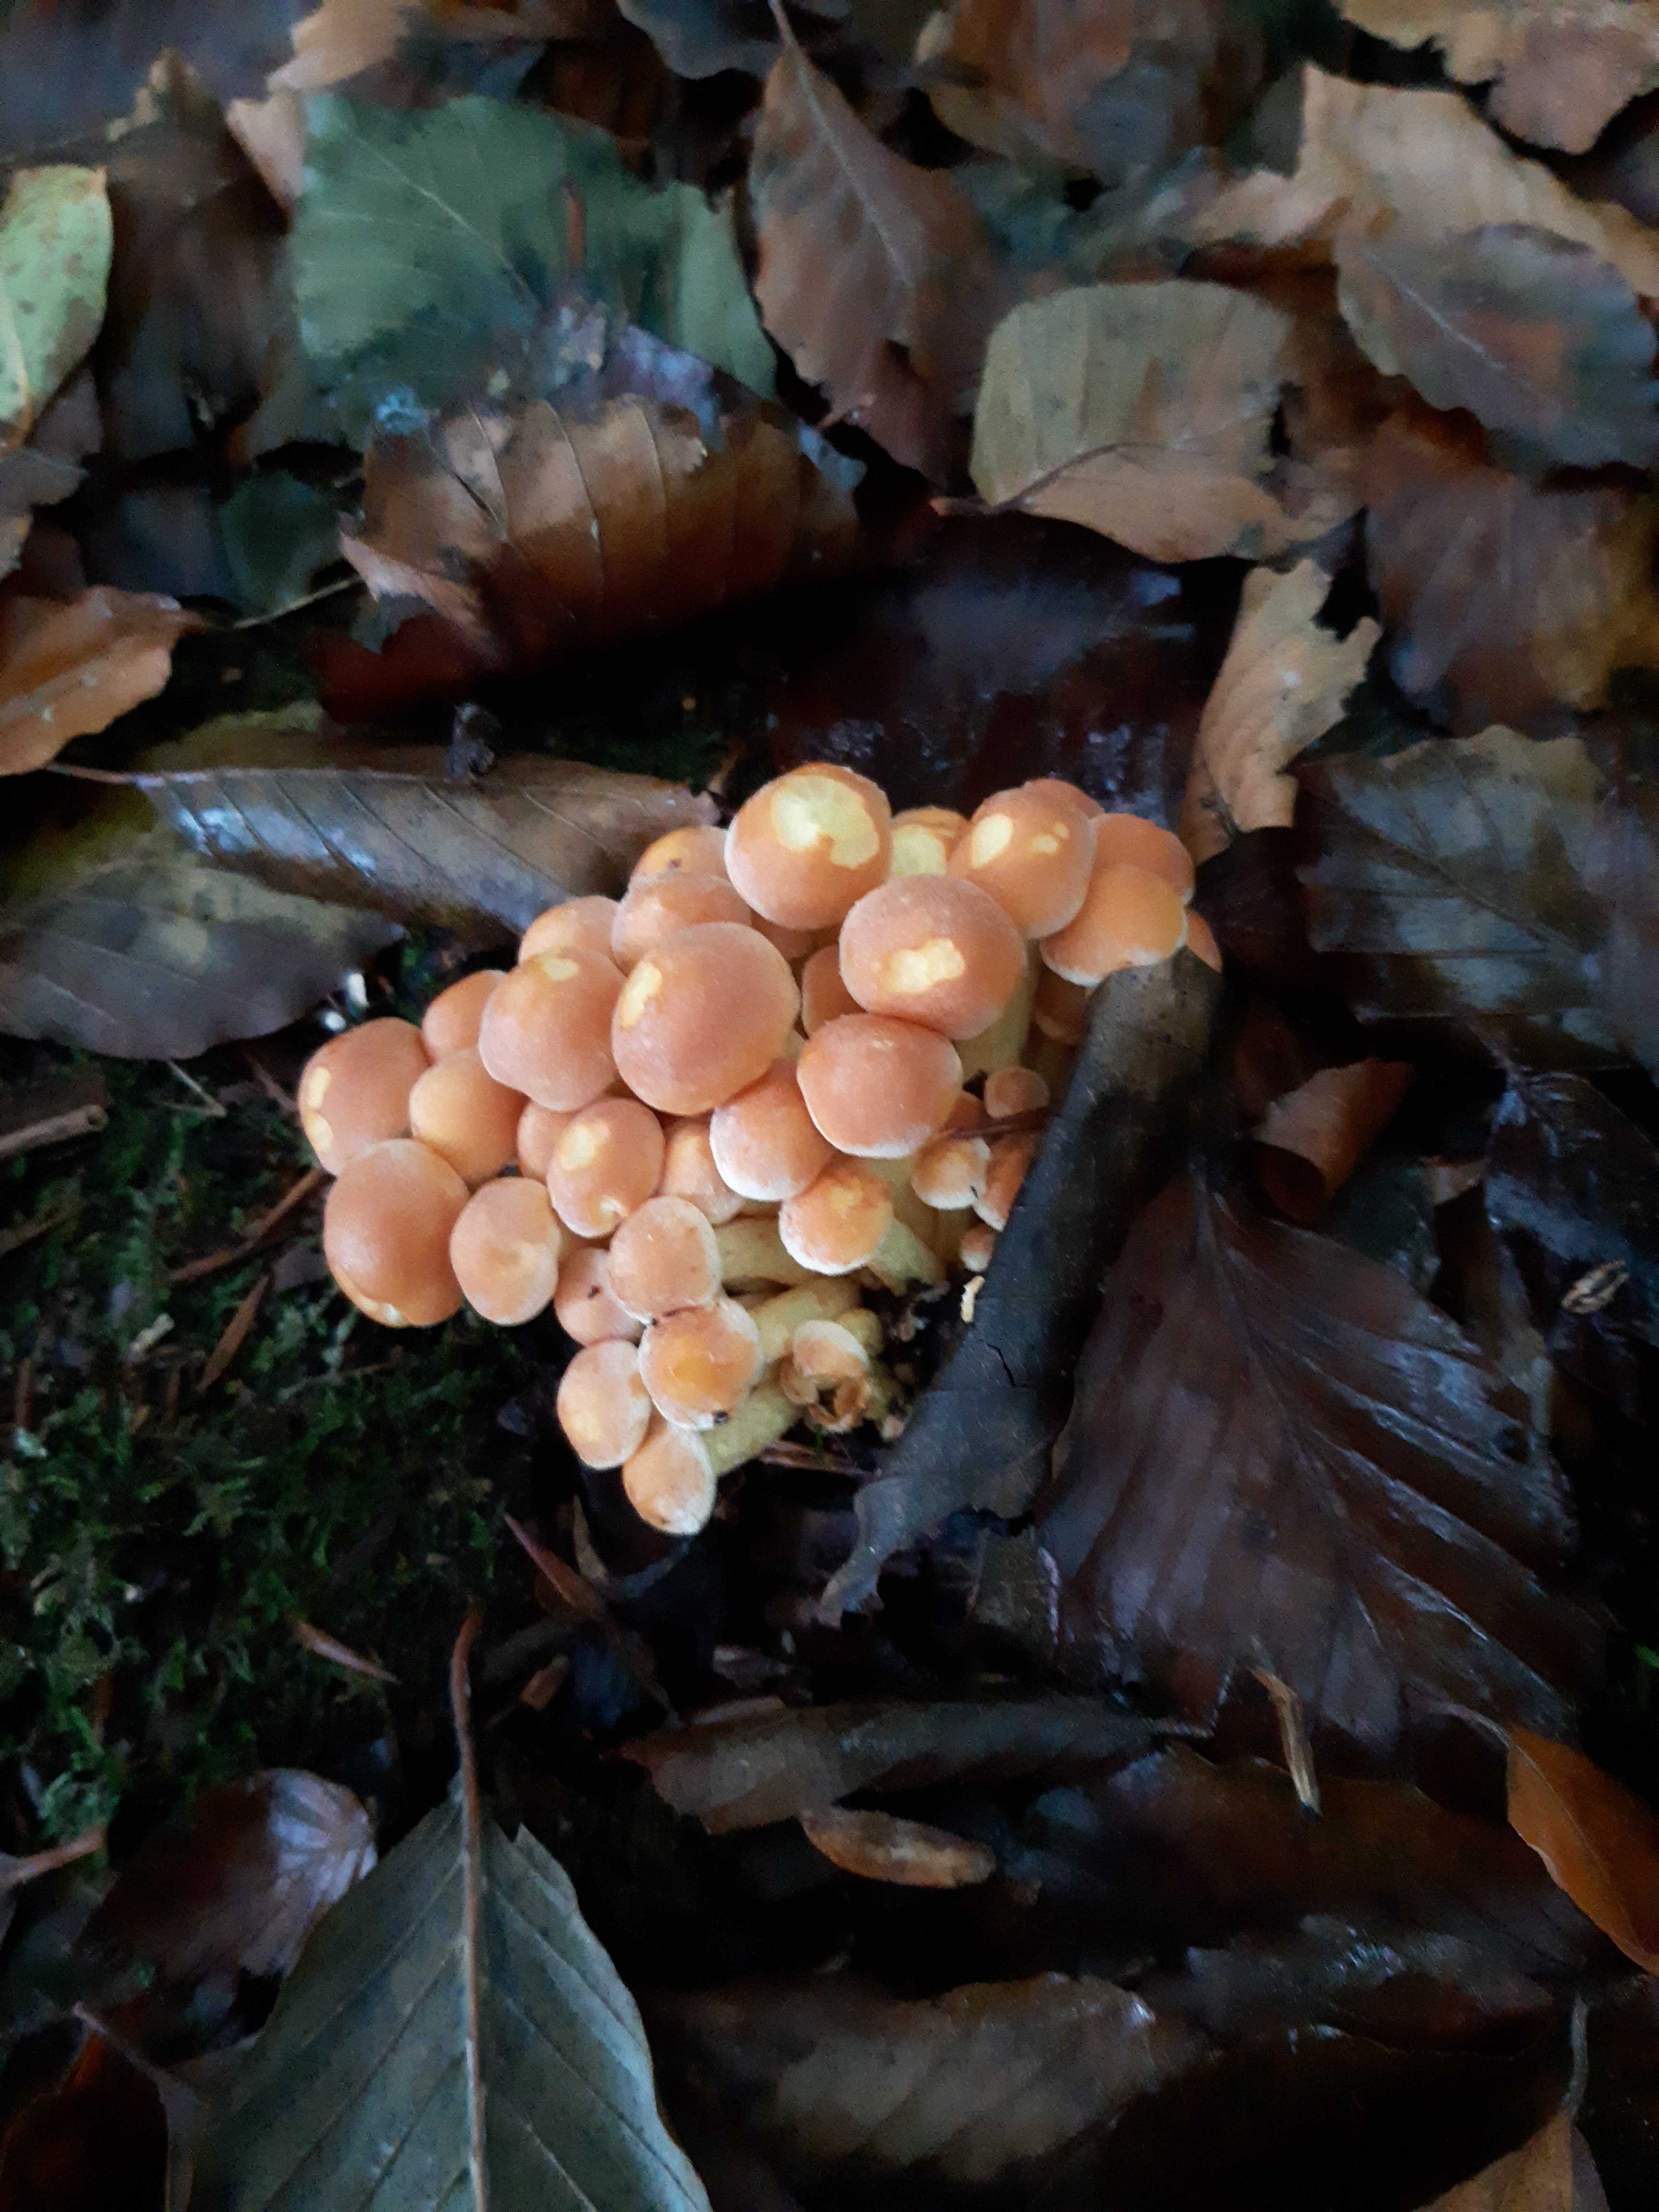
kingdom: Fungi
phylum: Basidiomycota
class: Agaricomycetes
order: Agaricales
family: Strophariaceae
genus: Hypholoma
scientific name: Hypholoma fasciculare
